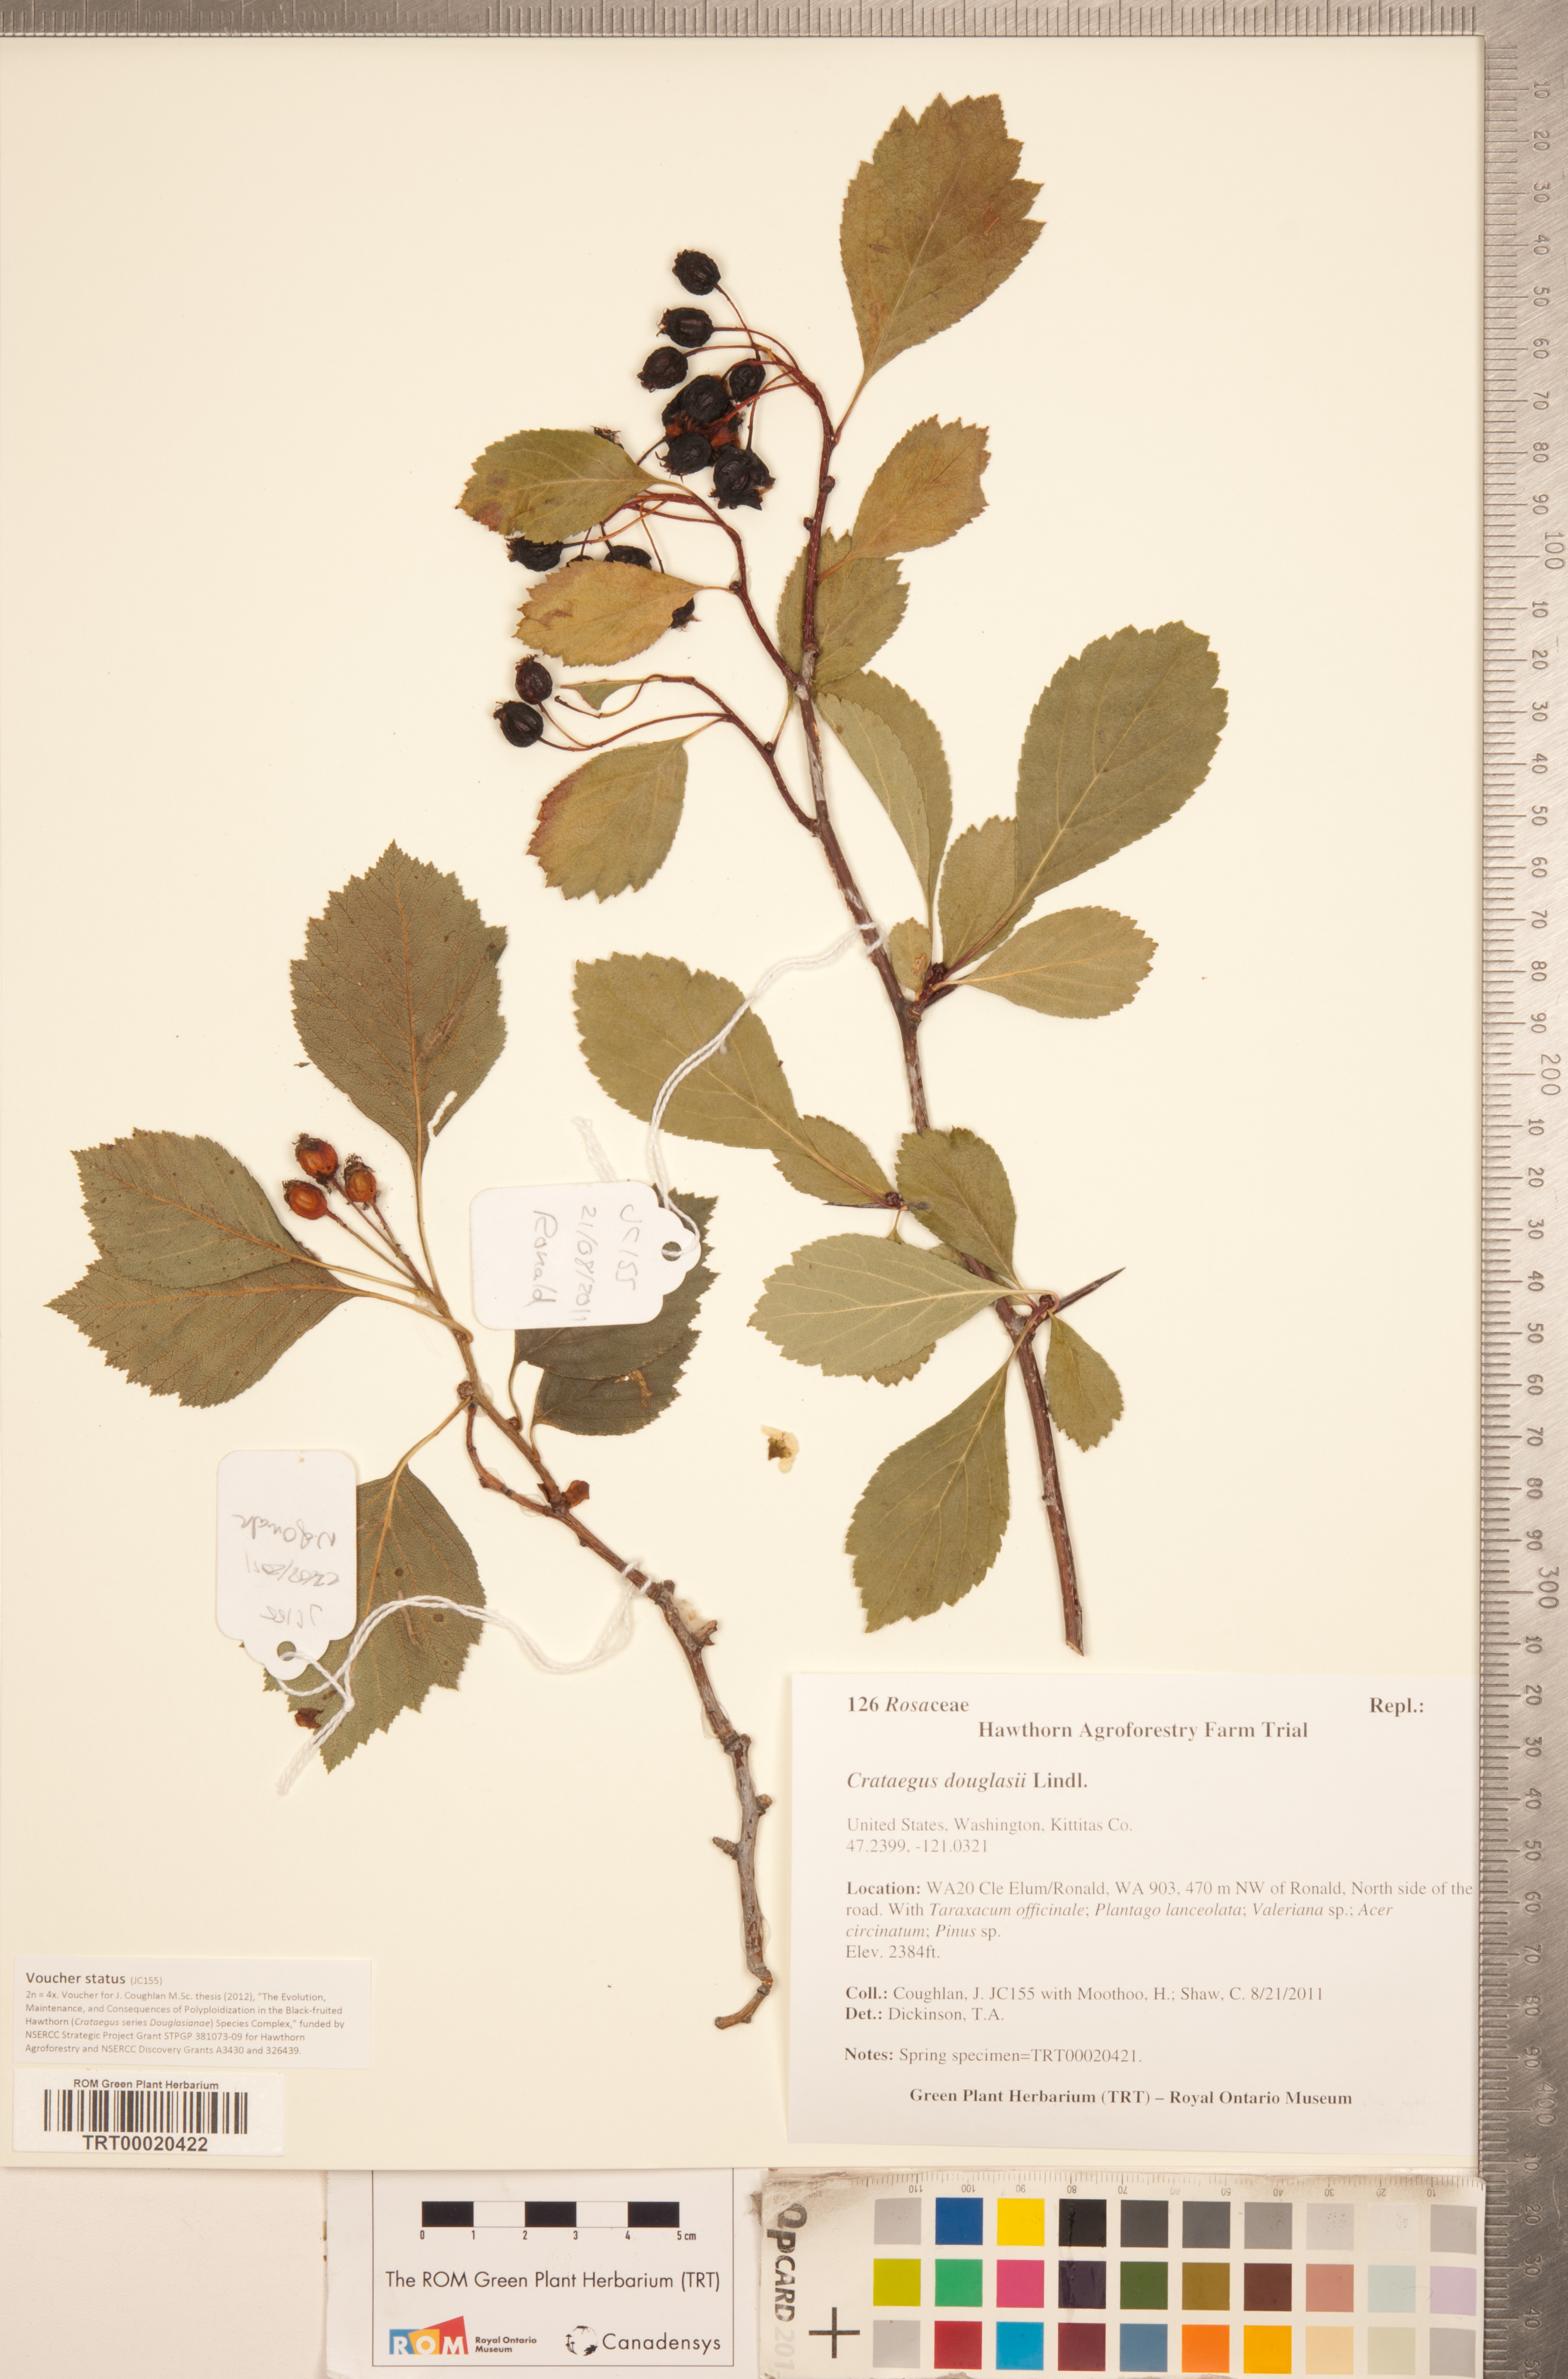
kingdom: Plantae
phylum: Tracheophyta
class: Magnoliopsida
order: Rosales
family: Rosaceae
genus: Crataegus
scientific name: Crataegus douglasii
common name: Black hawthorn
